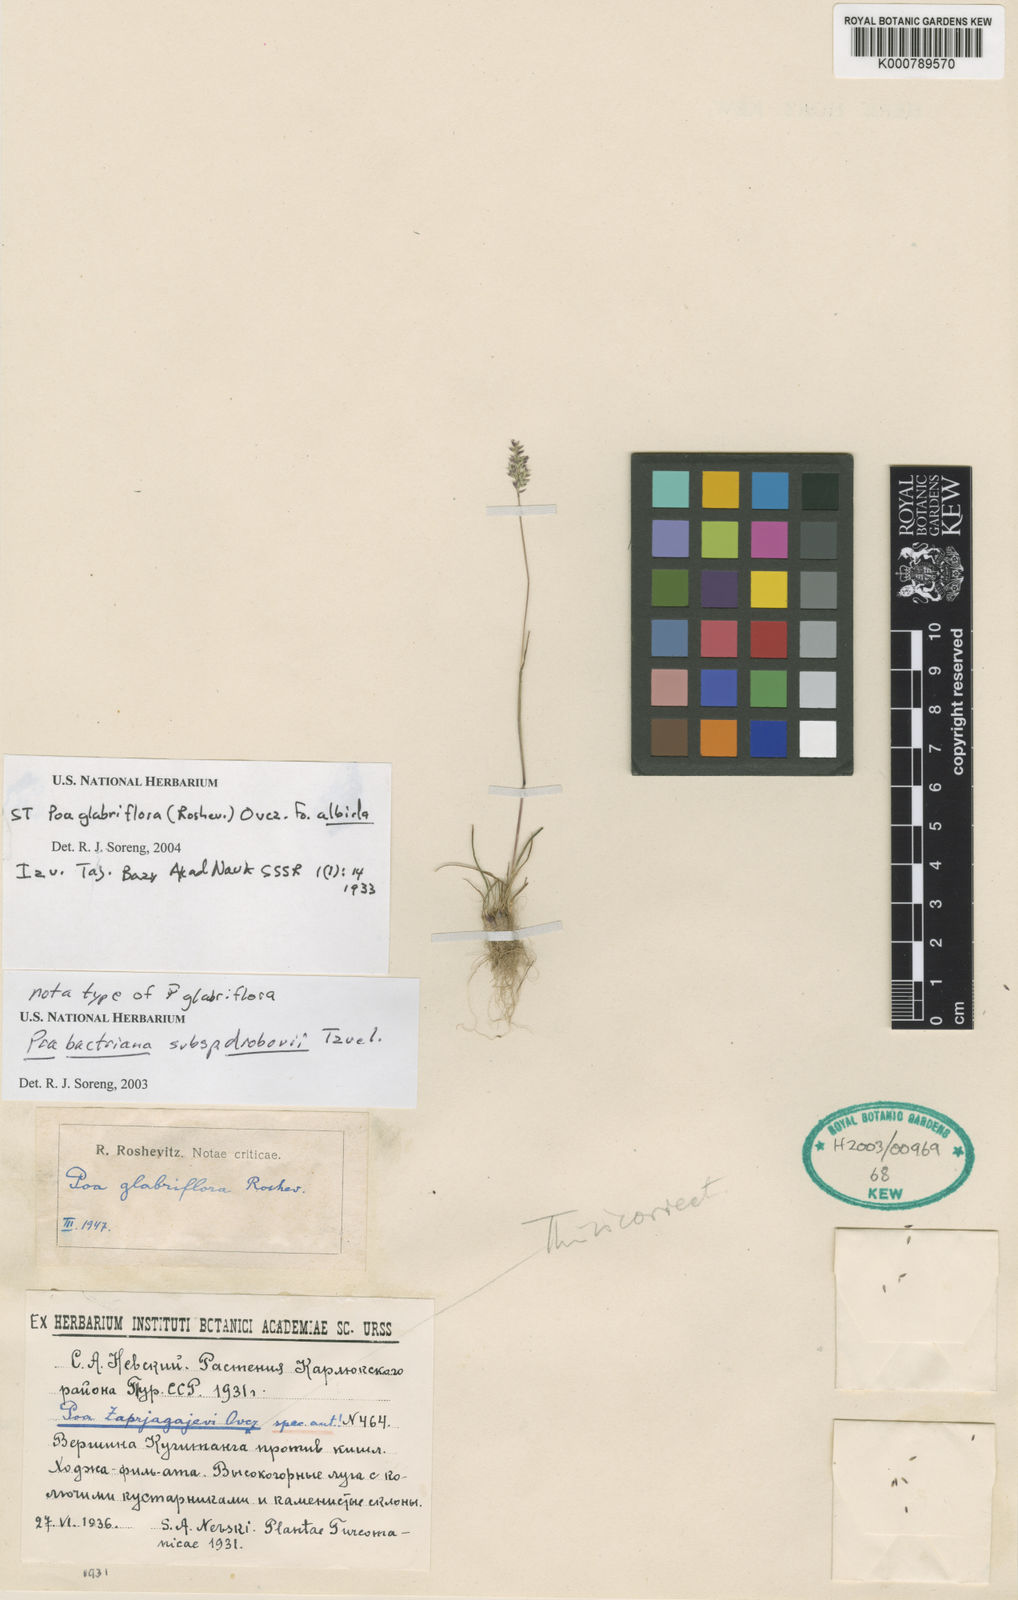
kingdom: Plantae
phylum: Tracheophyta
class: Liliopsida
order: Poales
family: Poaceae
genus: Poa
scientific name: Poa bactriana
